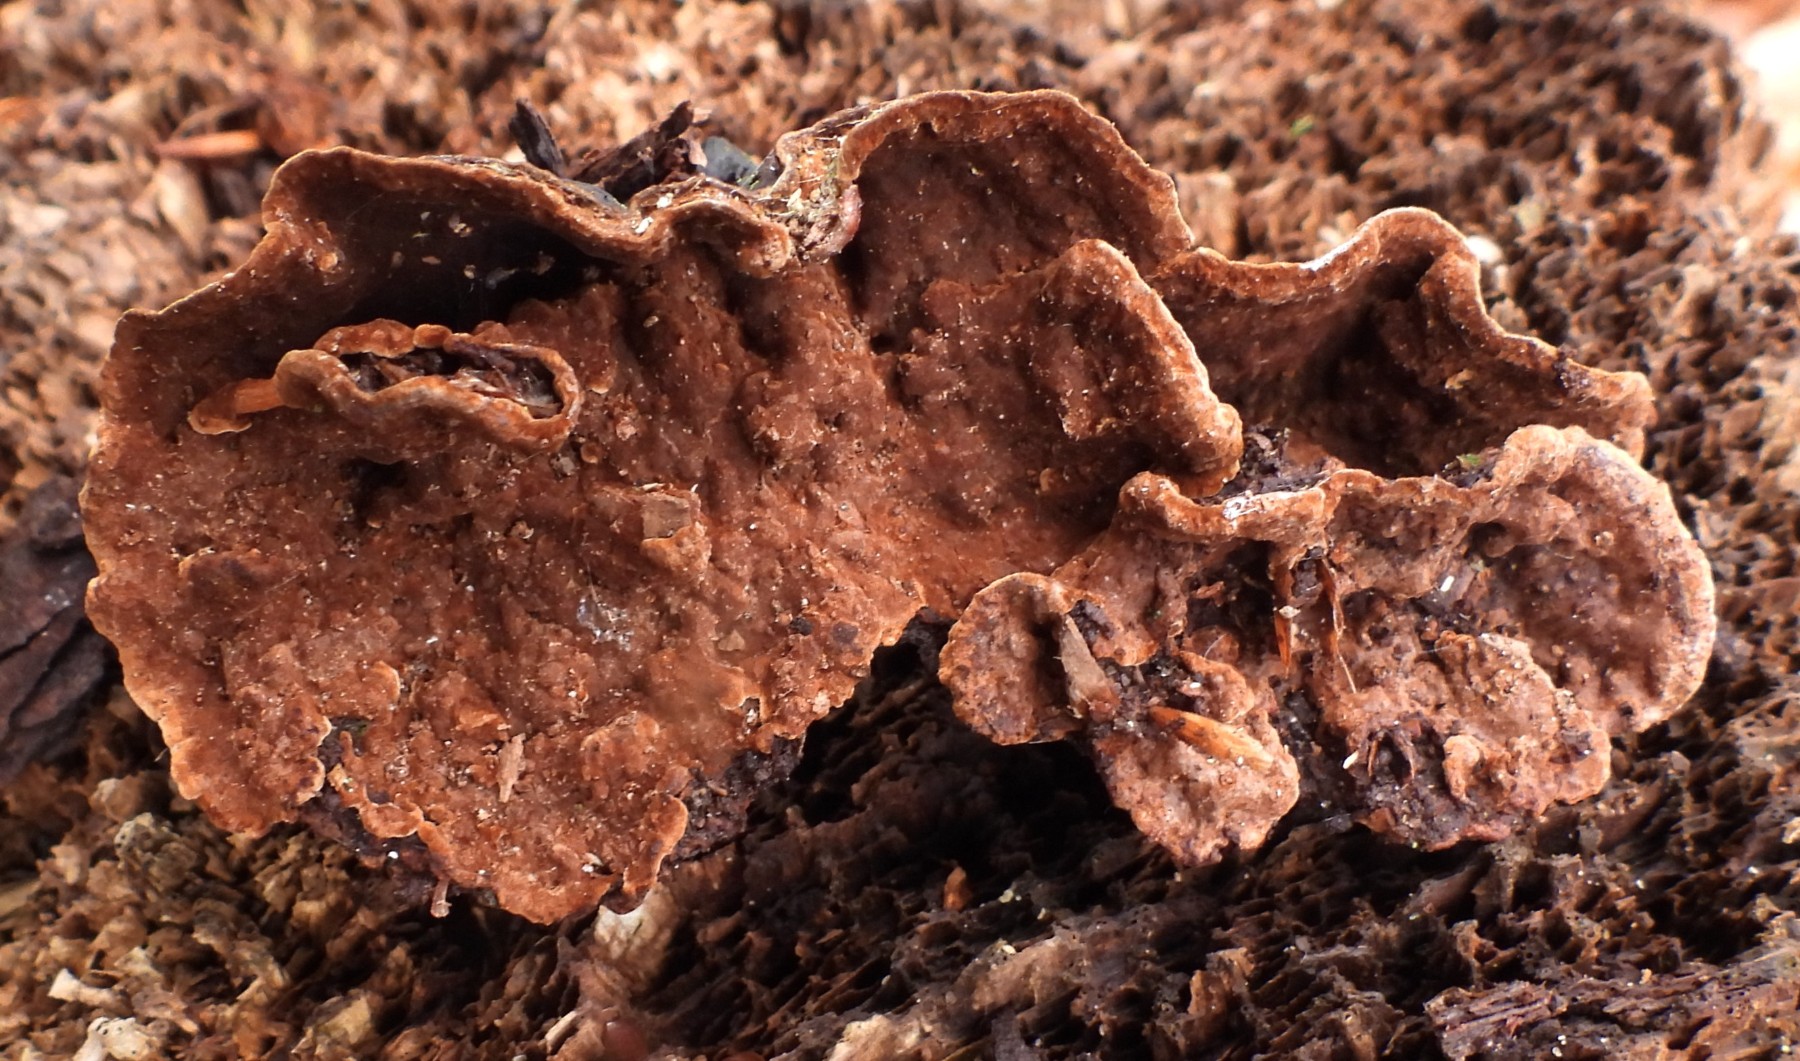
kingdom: Fungi
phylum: Basidiomycota
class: Agaricomycetes
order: Hymenochaetales
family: Hymenochaetaceae
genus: Hymenochaete
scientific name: Hymenochaete rubiginosa
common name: stiv ruslædersvamp
